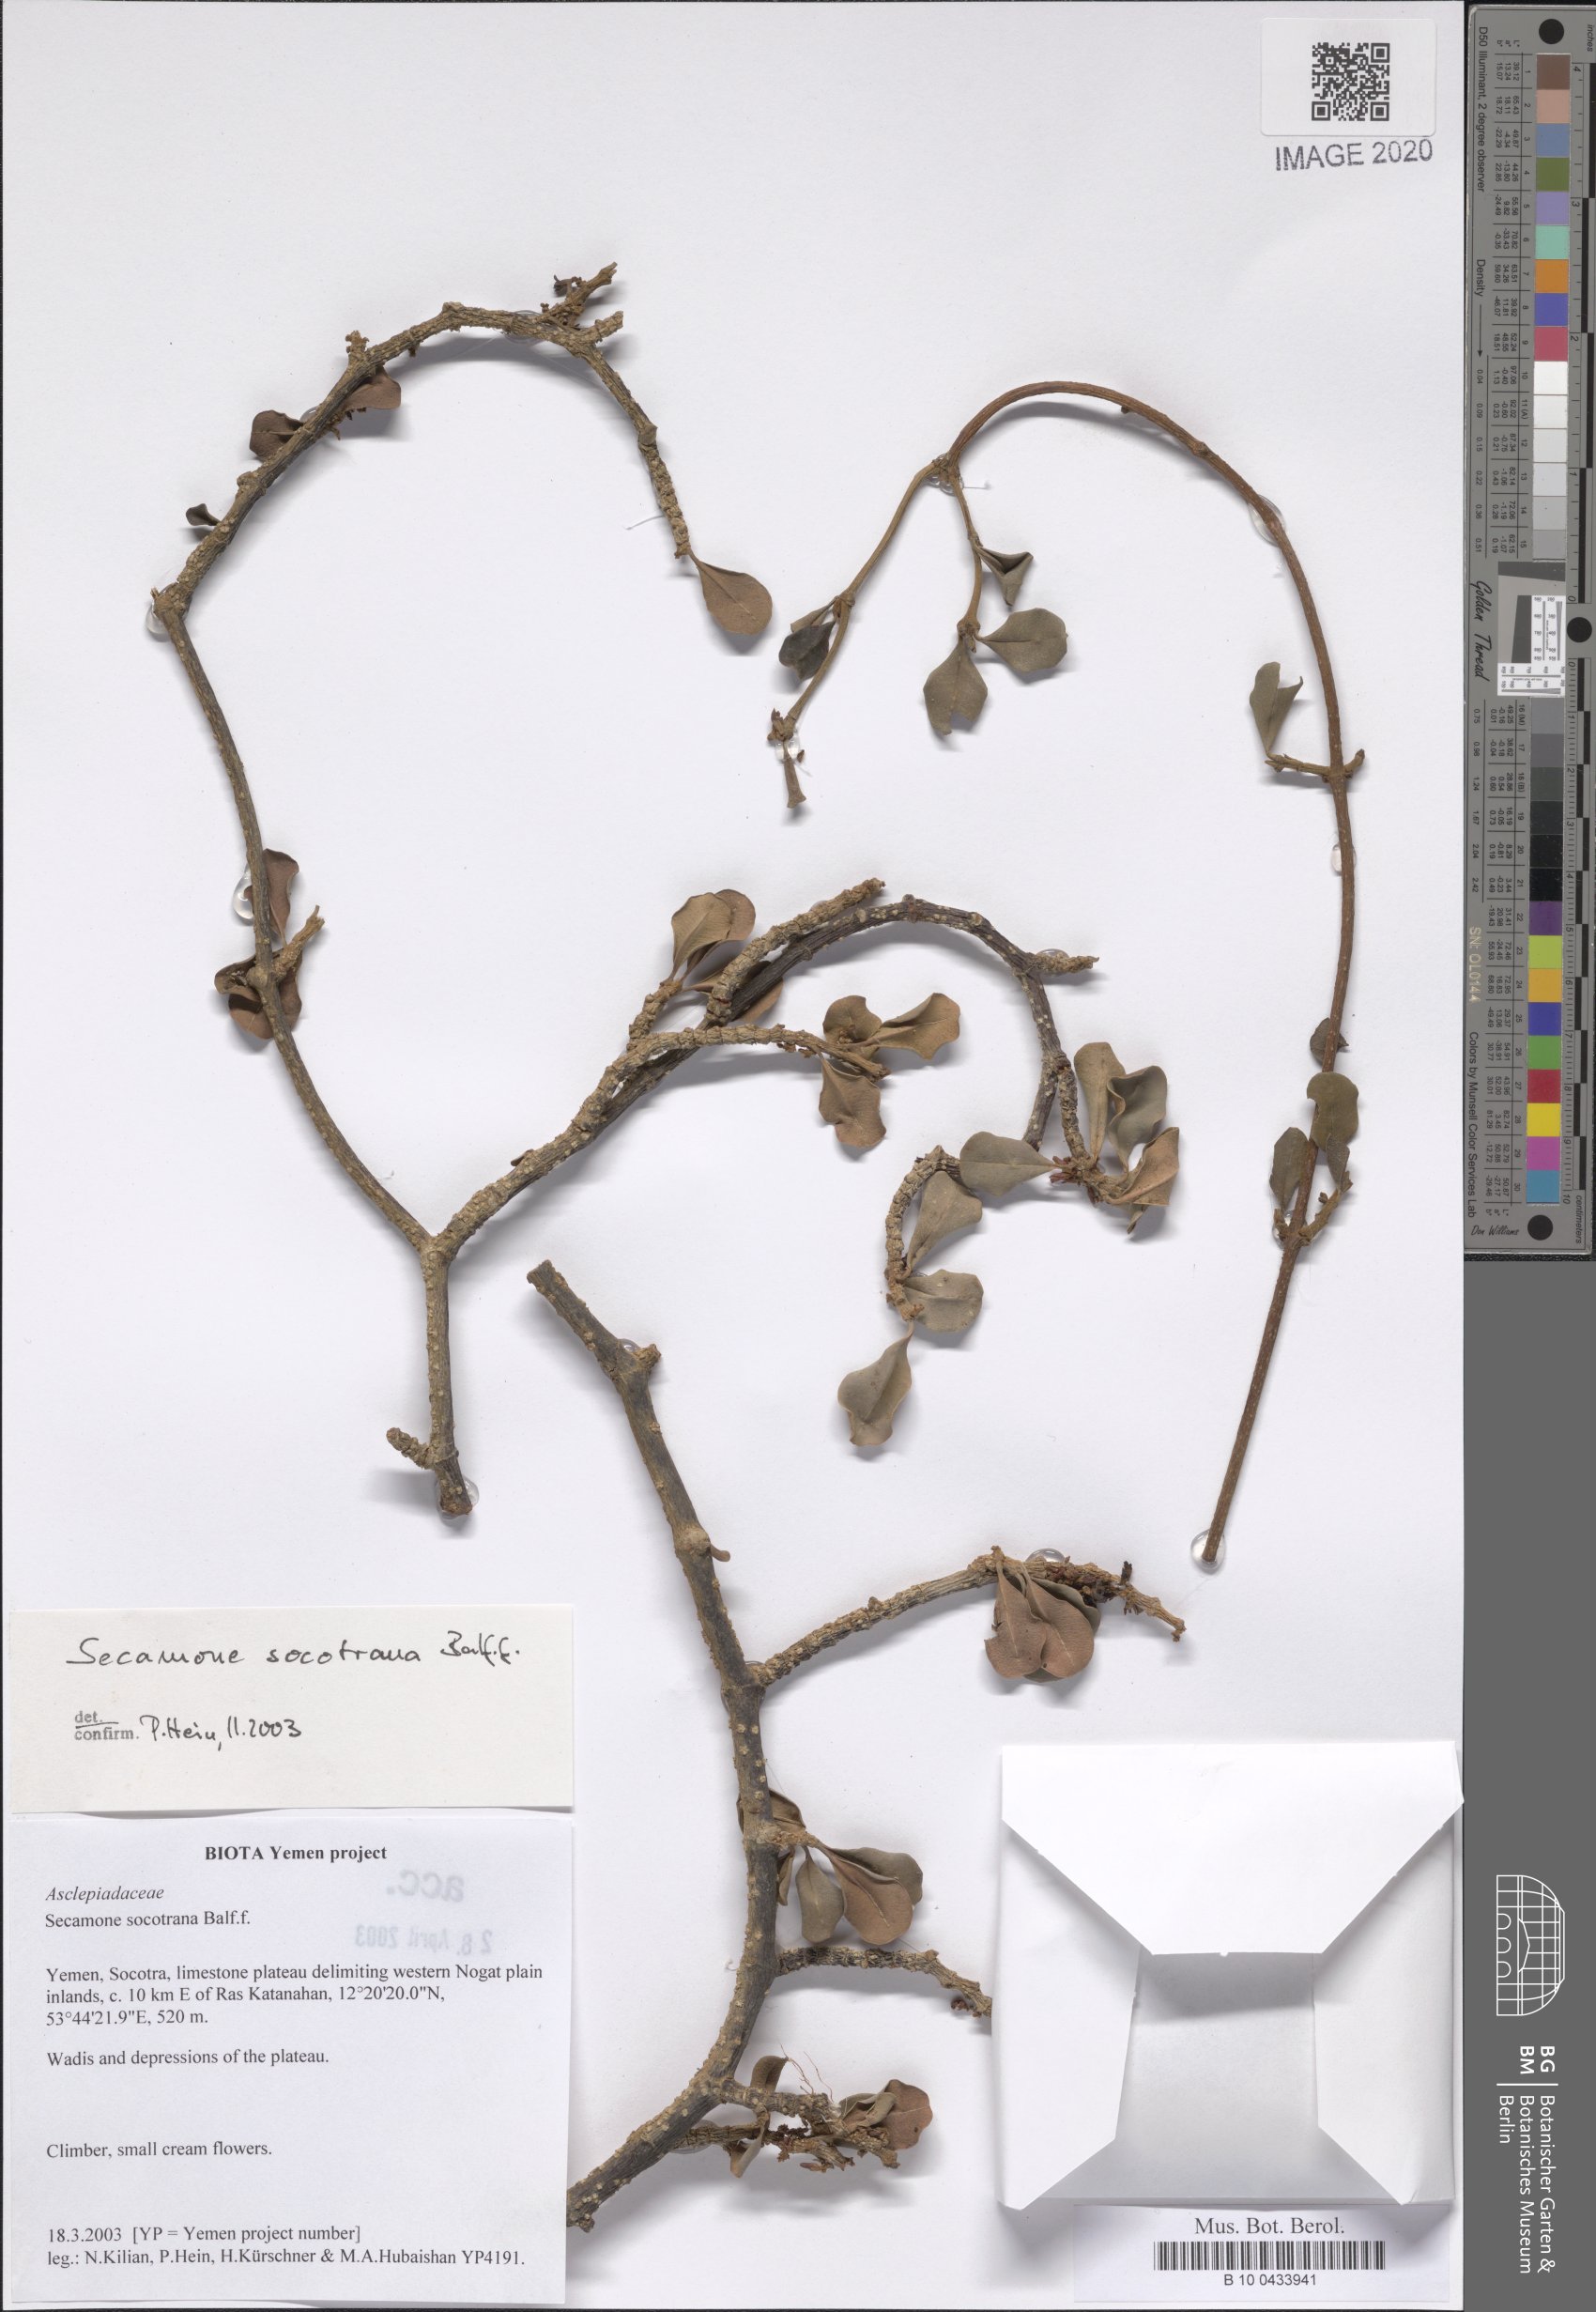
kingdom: Plantae
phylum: Tracheophyta
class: Magnoliopsida
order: Gentianales
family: Apocynaceae
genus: Secamone
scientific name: Secamone socotrana
